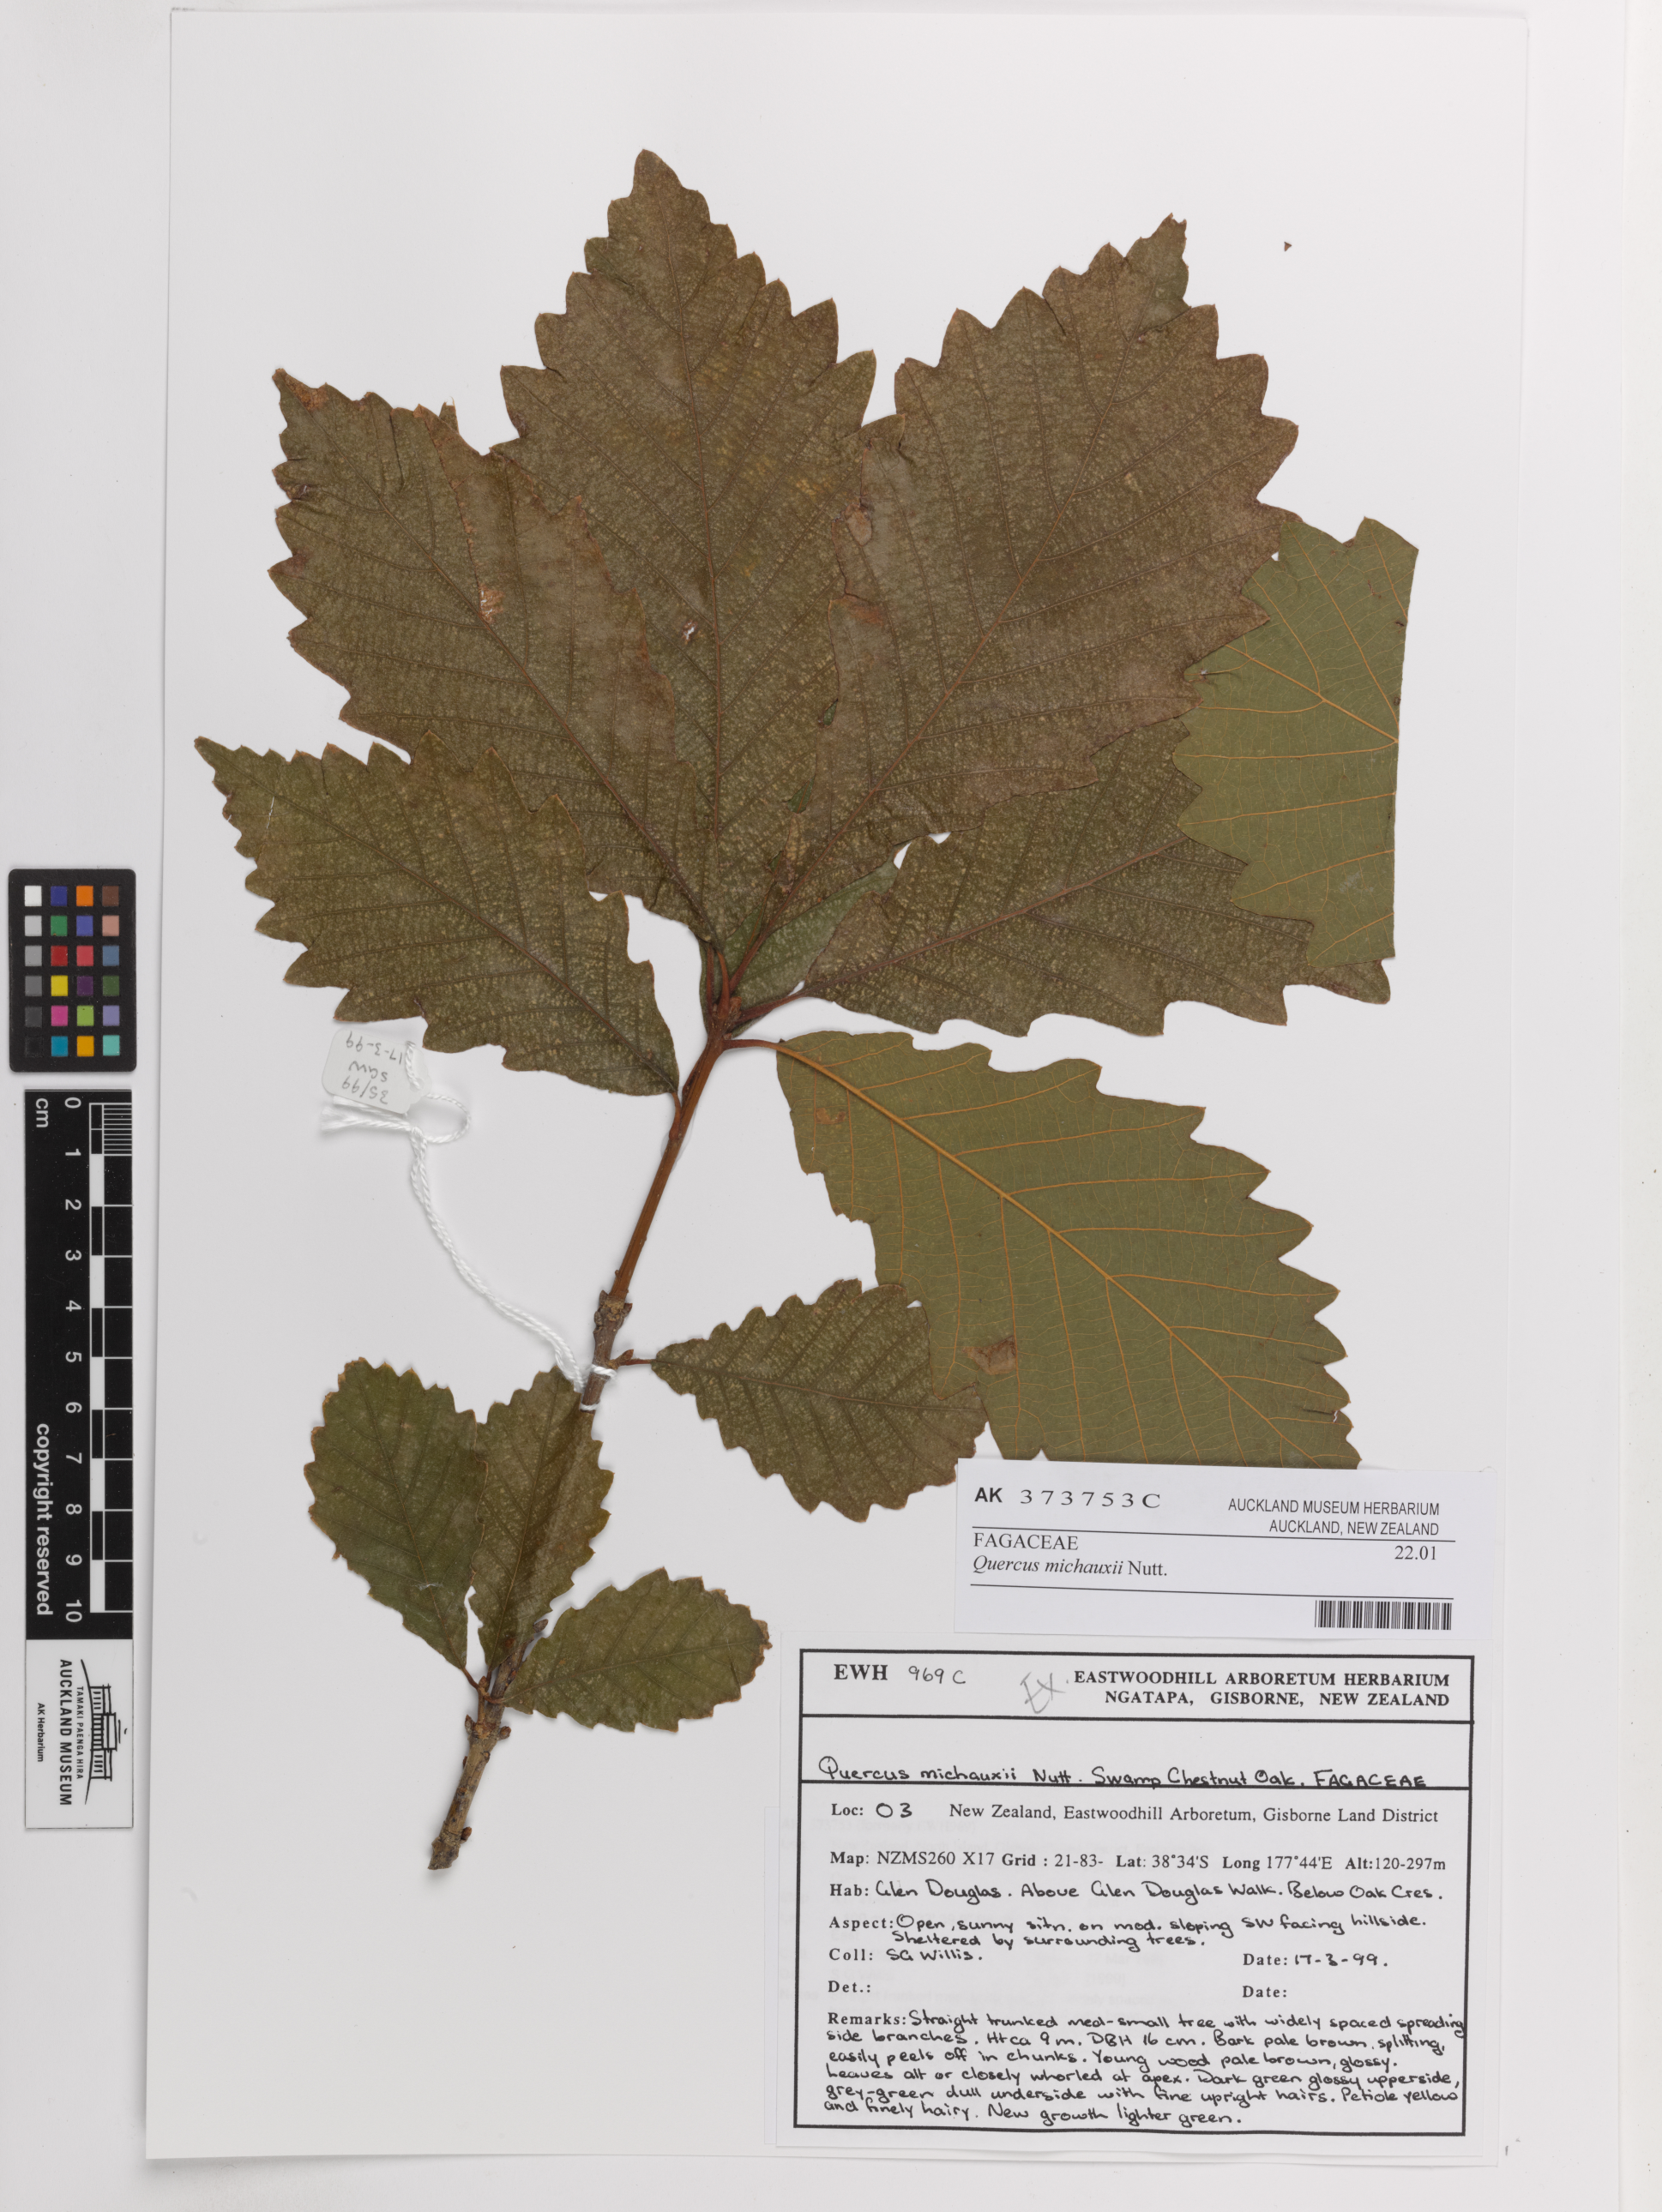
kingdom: Plantae
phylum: Tracheophyta
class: Magnoliopsida
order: Fagales
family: Fagaceae
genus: Quercus
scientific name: Quercus michauxii
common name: Swamp chestnut oak
